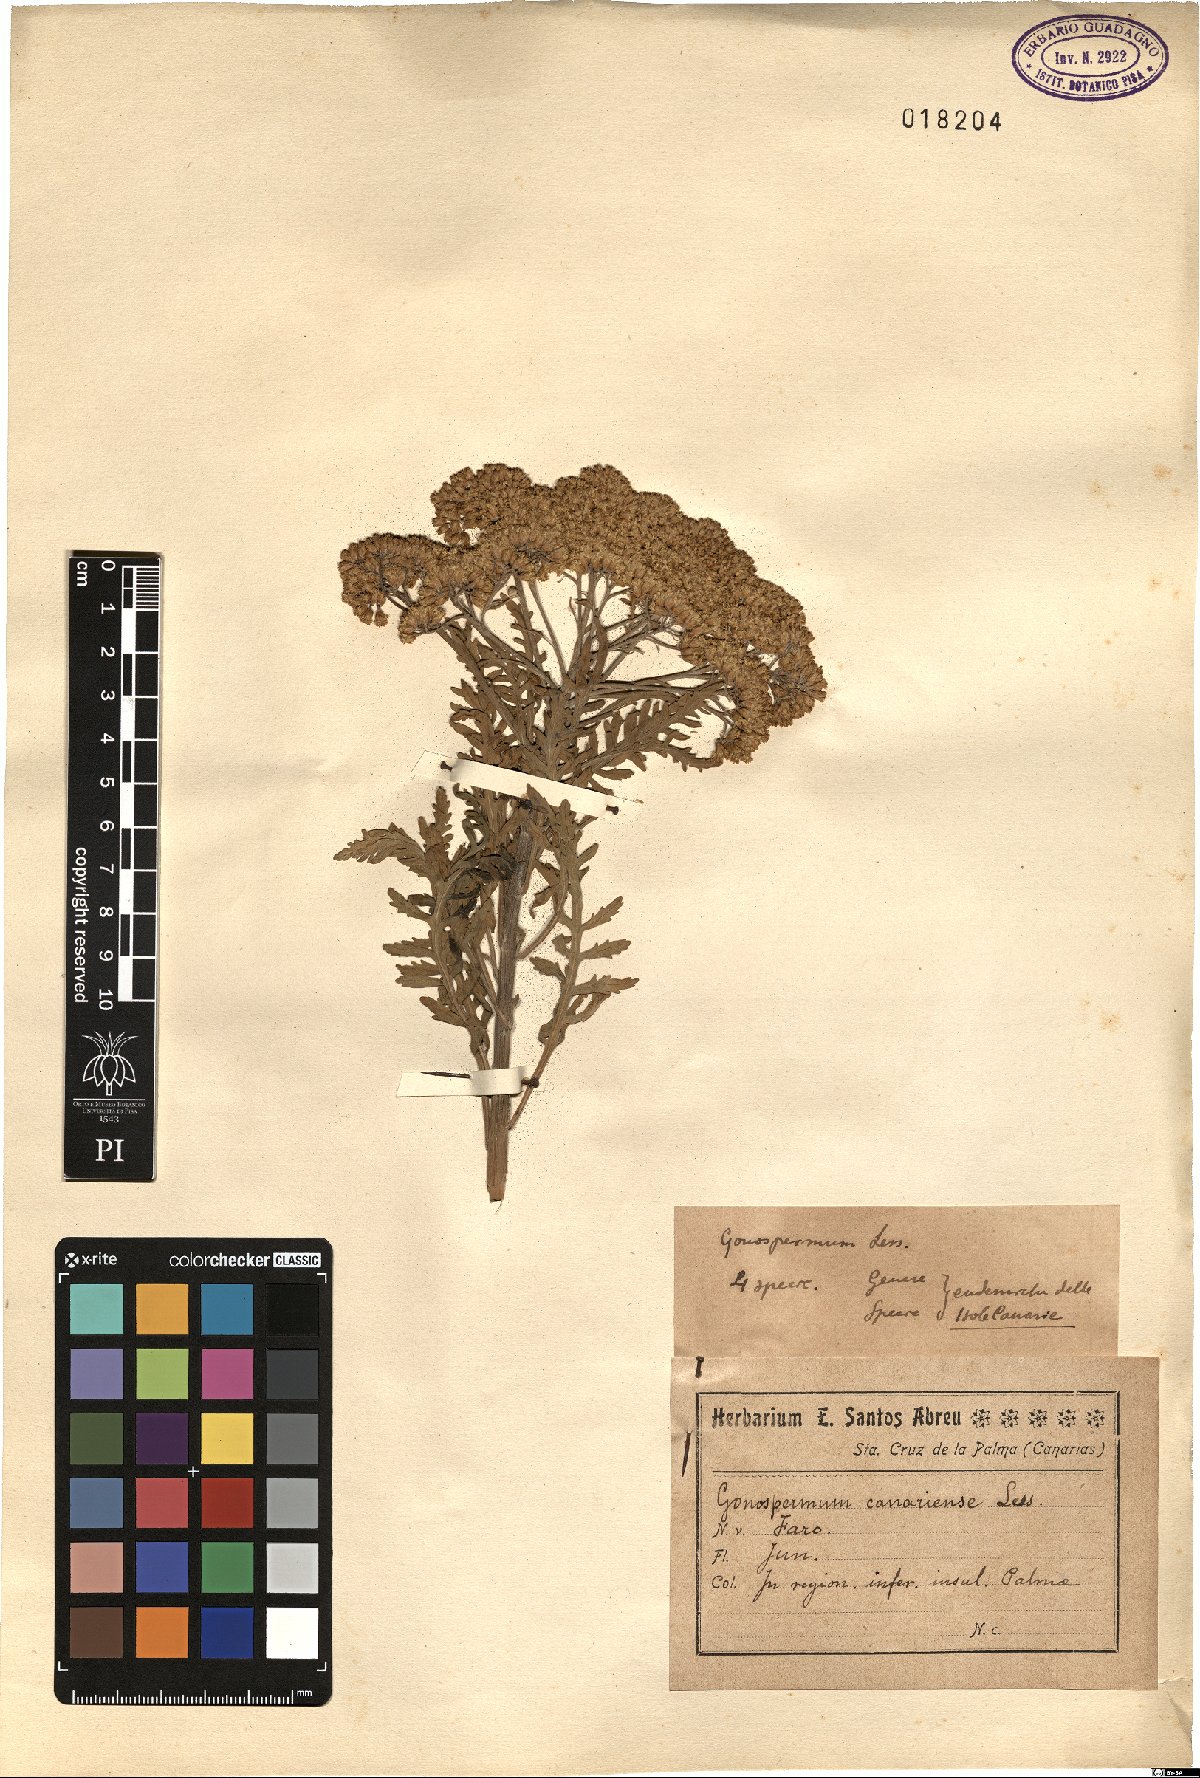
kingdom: Plantae
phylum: Tracheophyta
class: Magnoliopsida
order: Asterales
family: Asteraceae
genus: Gonospermum
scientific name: Gonospermum canariense
